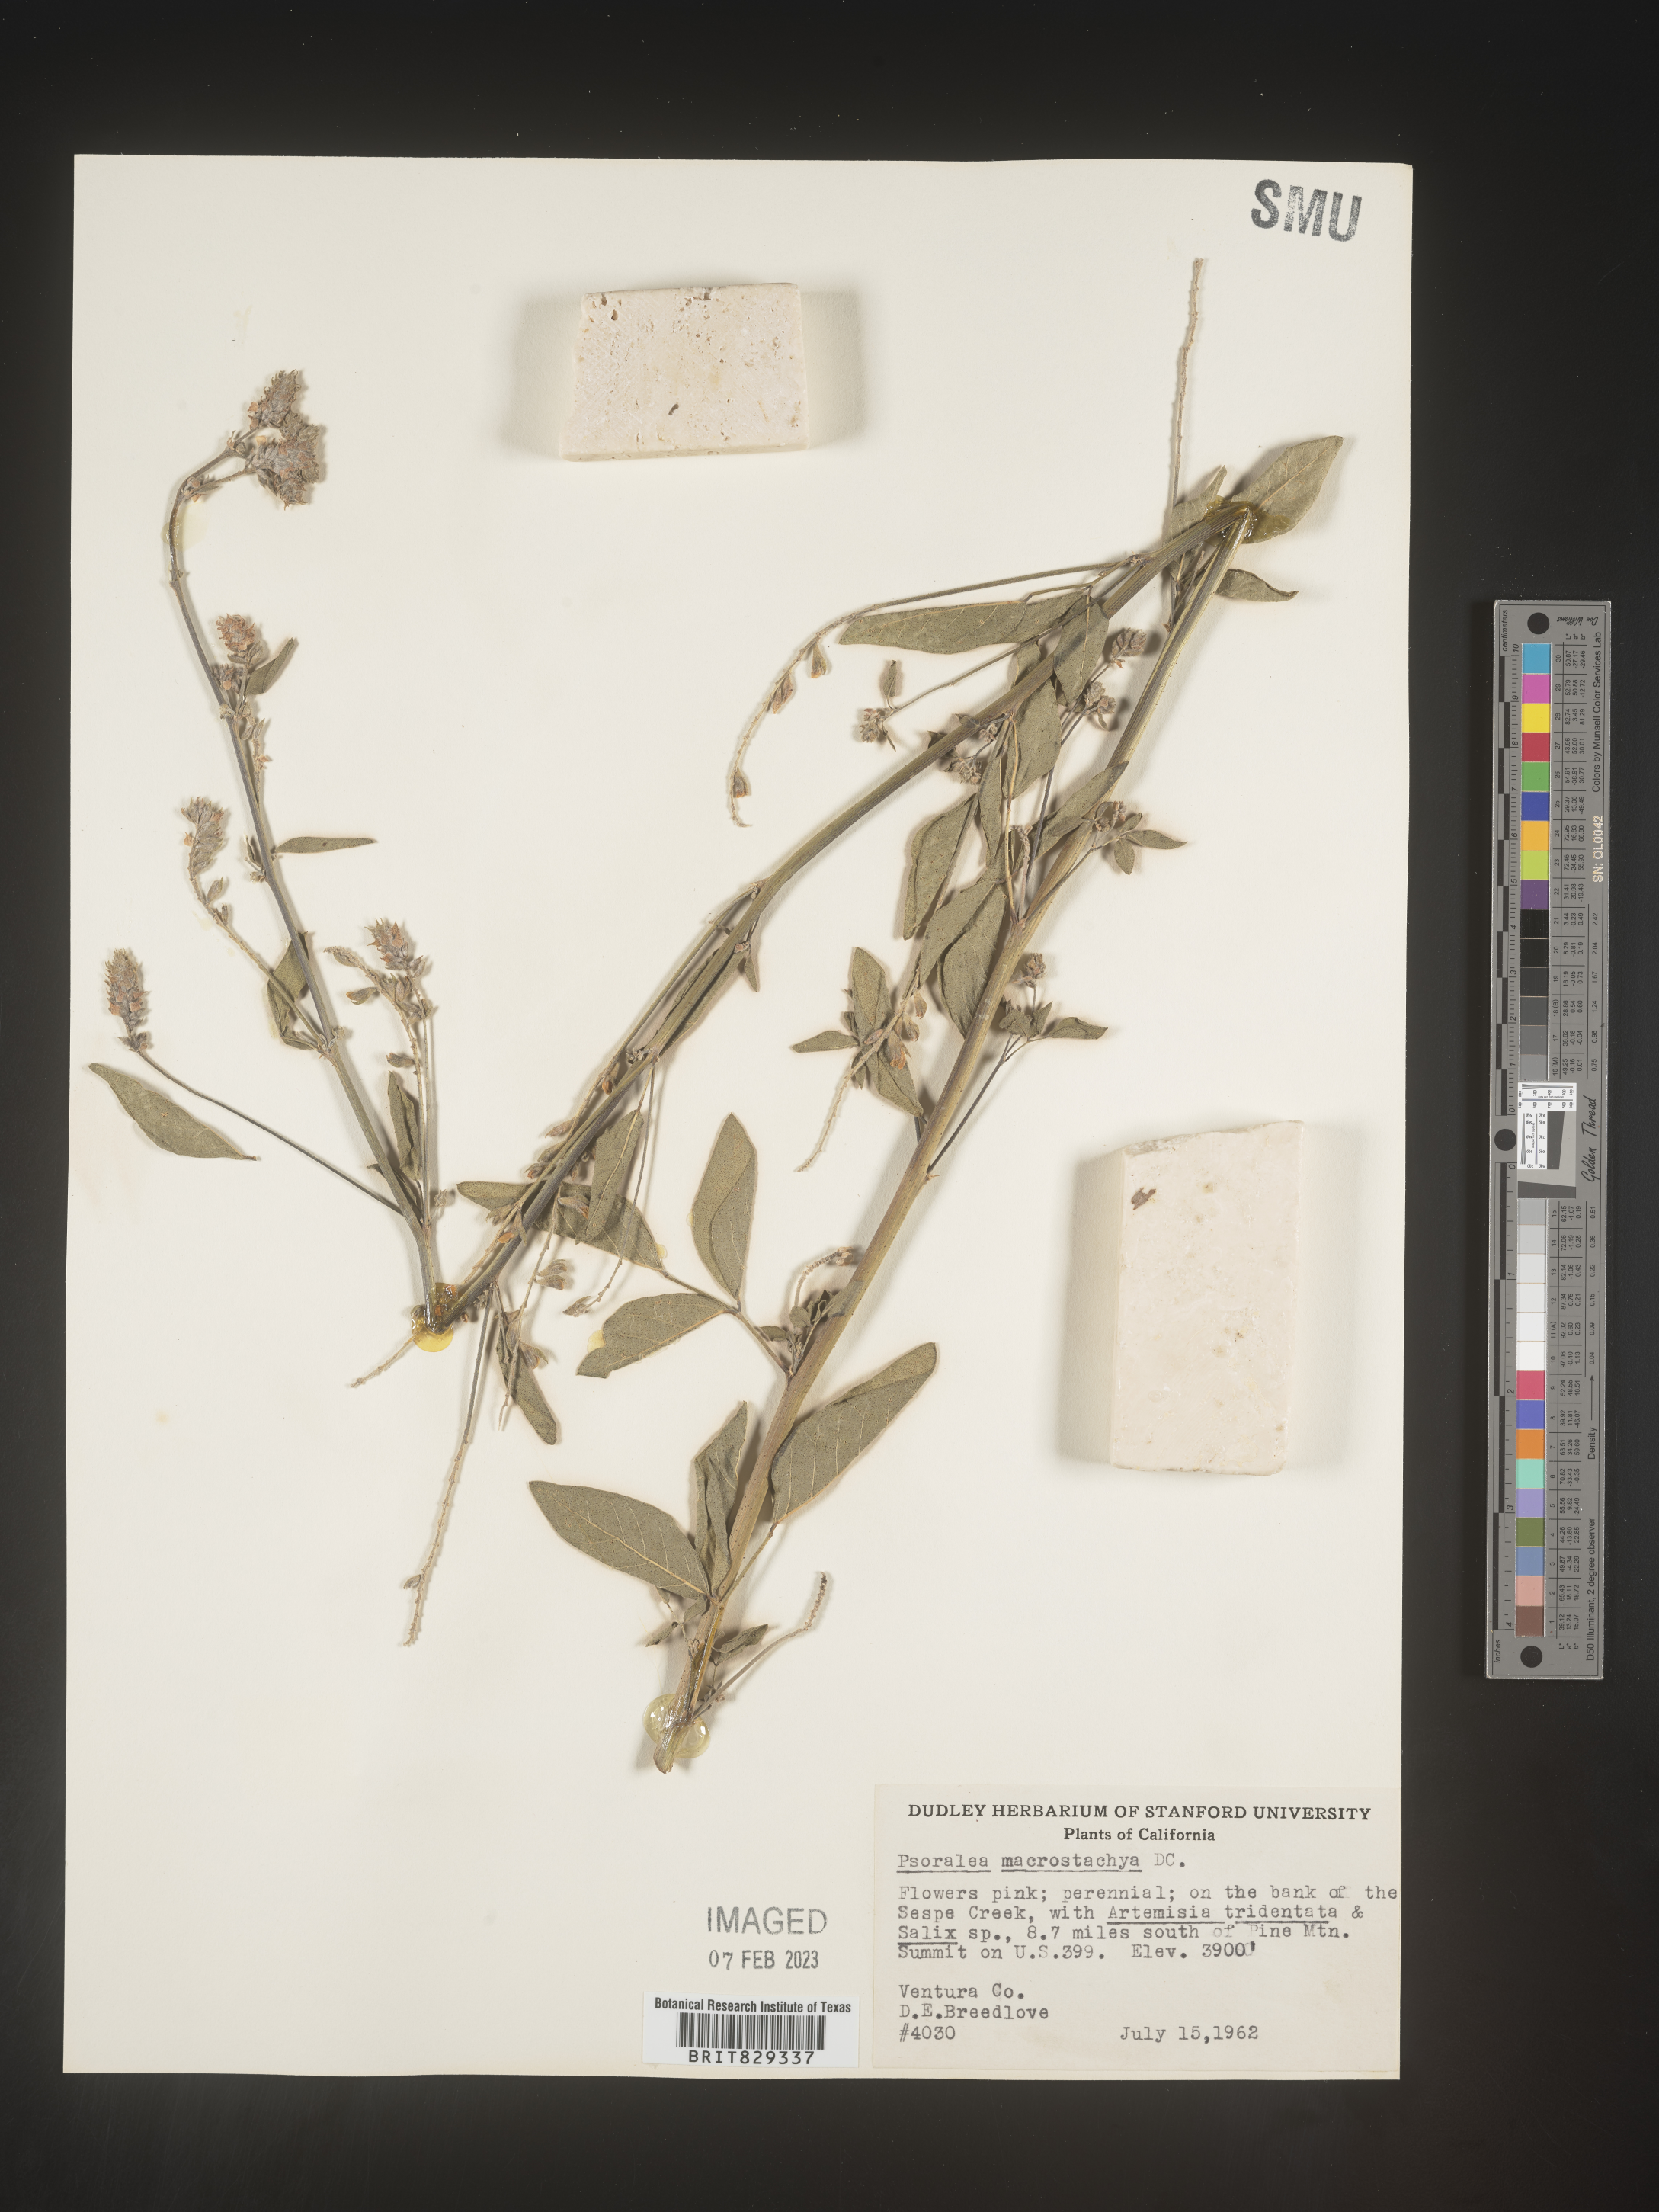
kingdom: Plantae
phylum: Tracheophyta
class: Magnoliopsida
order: Fabales
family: Fabaceae
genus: Psoralea
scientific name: Psoralea
